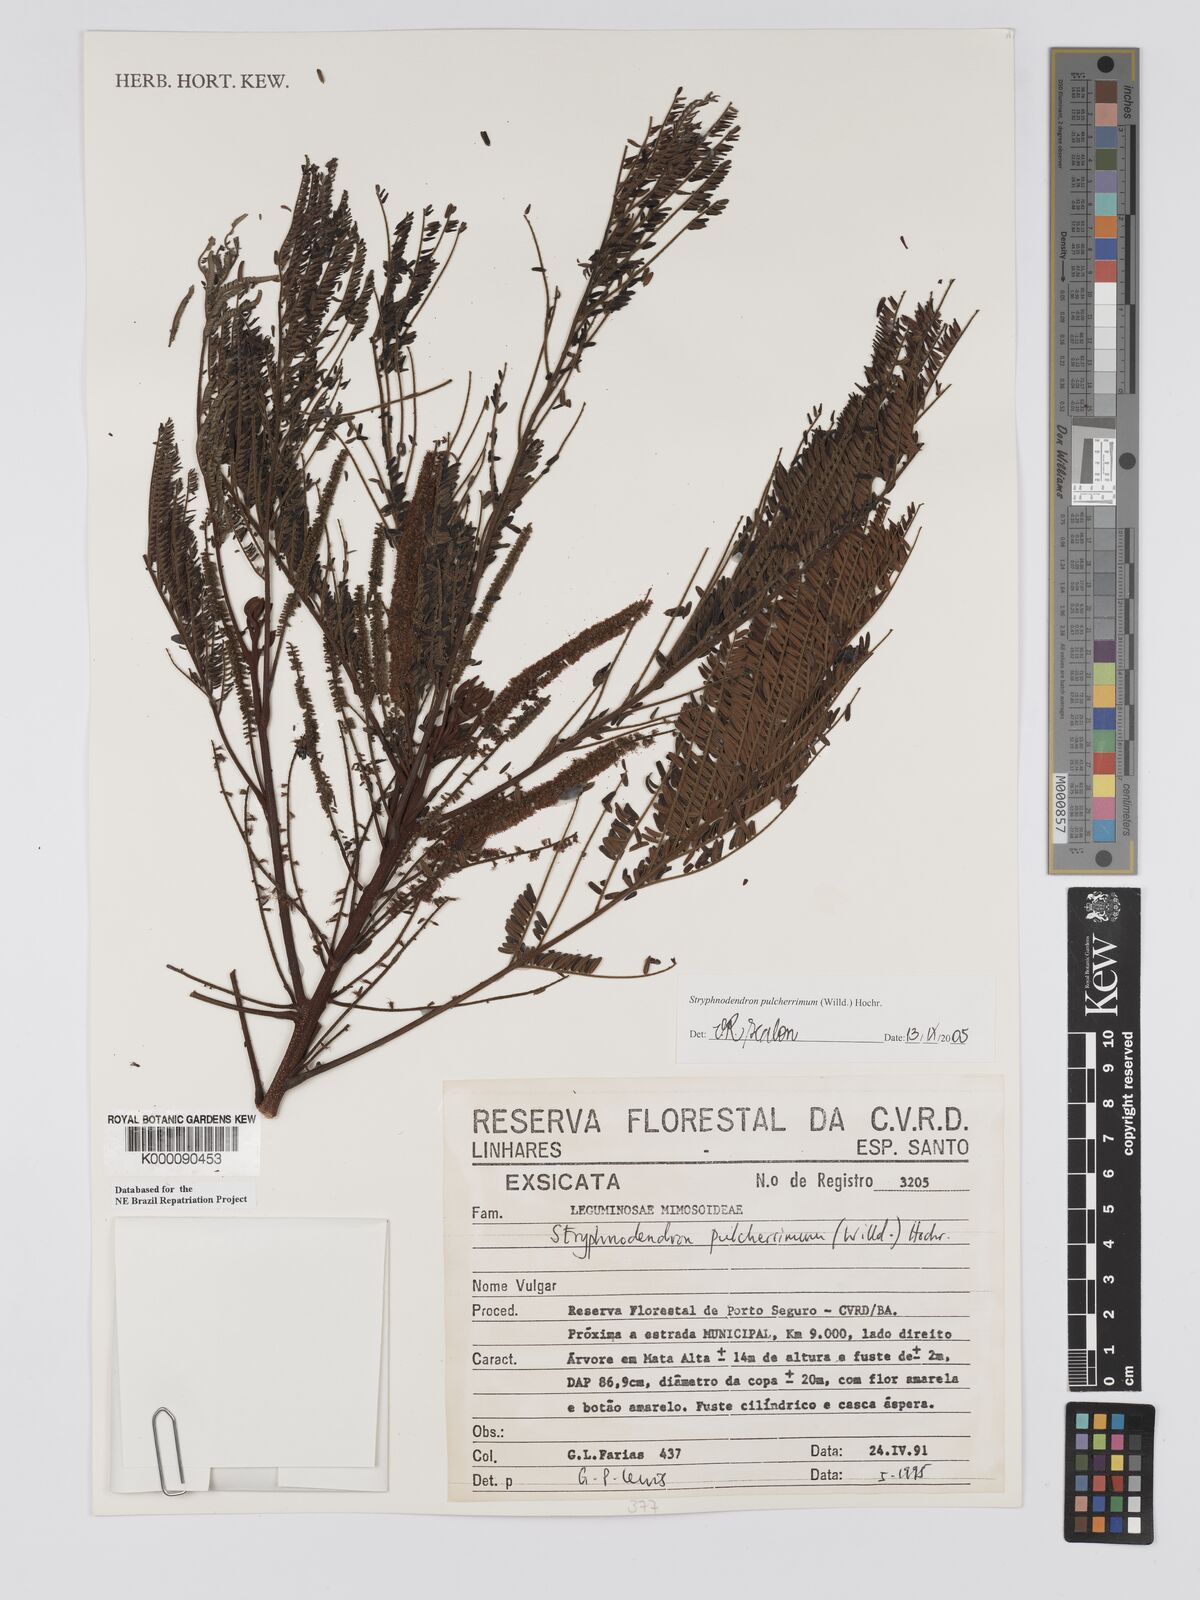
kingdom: Plantae
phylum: Tracheophyta
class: Magnoliopsida
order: Fabales
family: Fabaceae
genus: Stryphnodendron
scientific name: Stryphnodendron pulcherrimum
